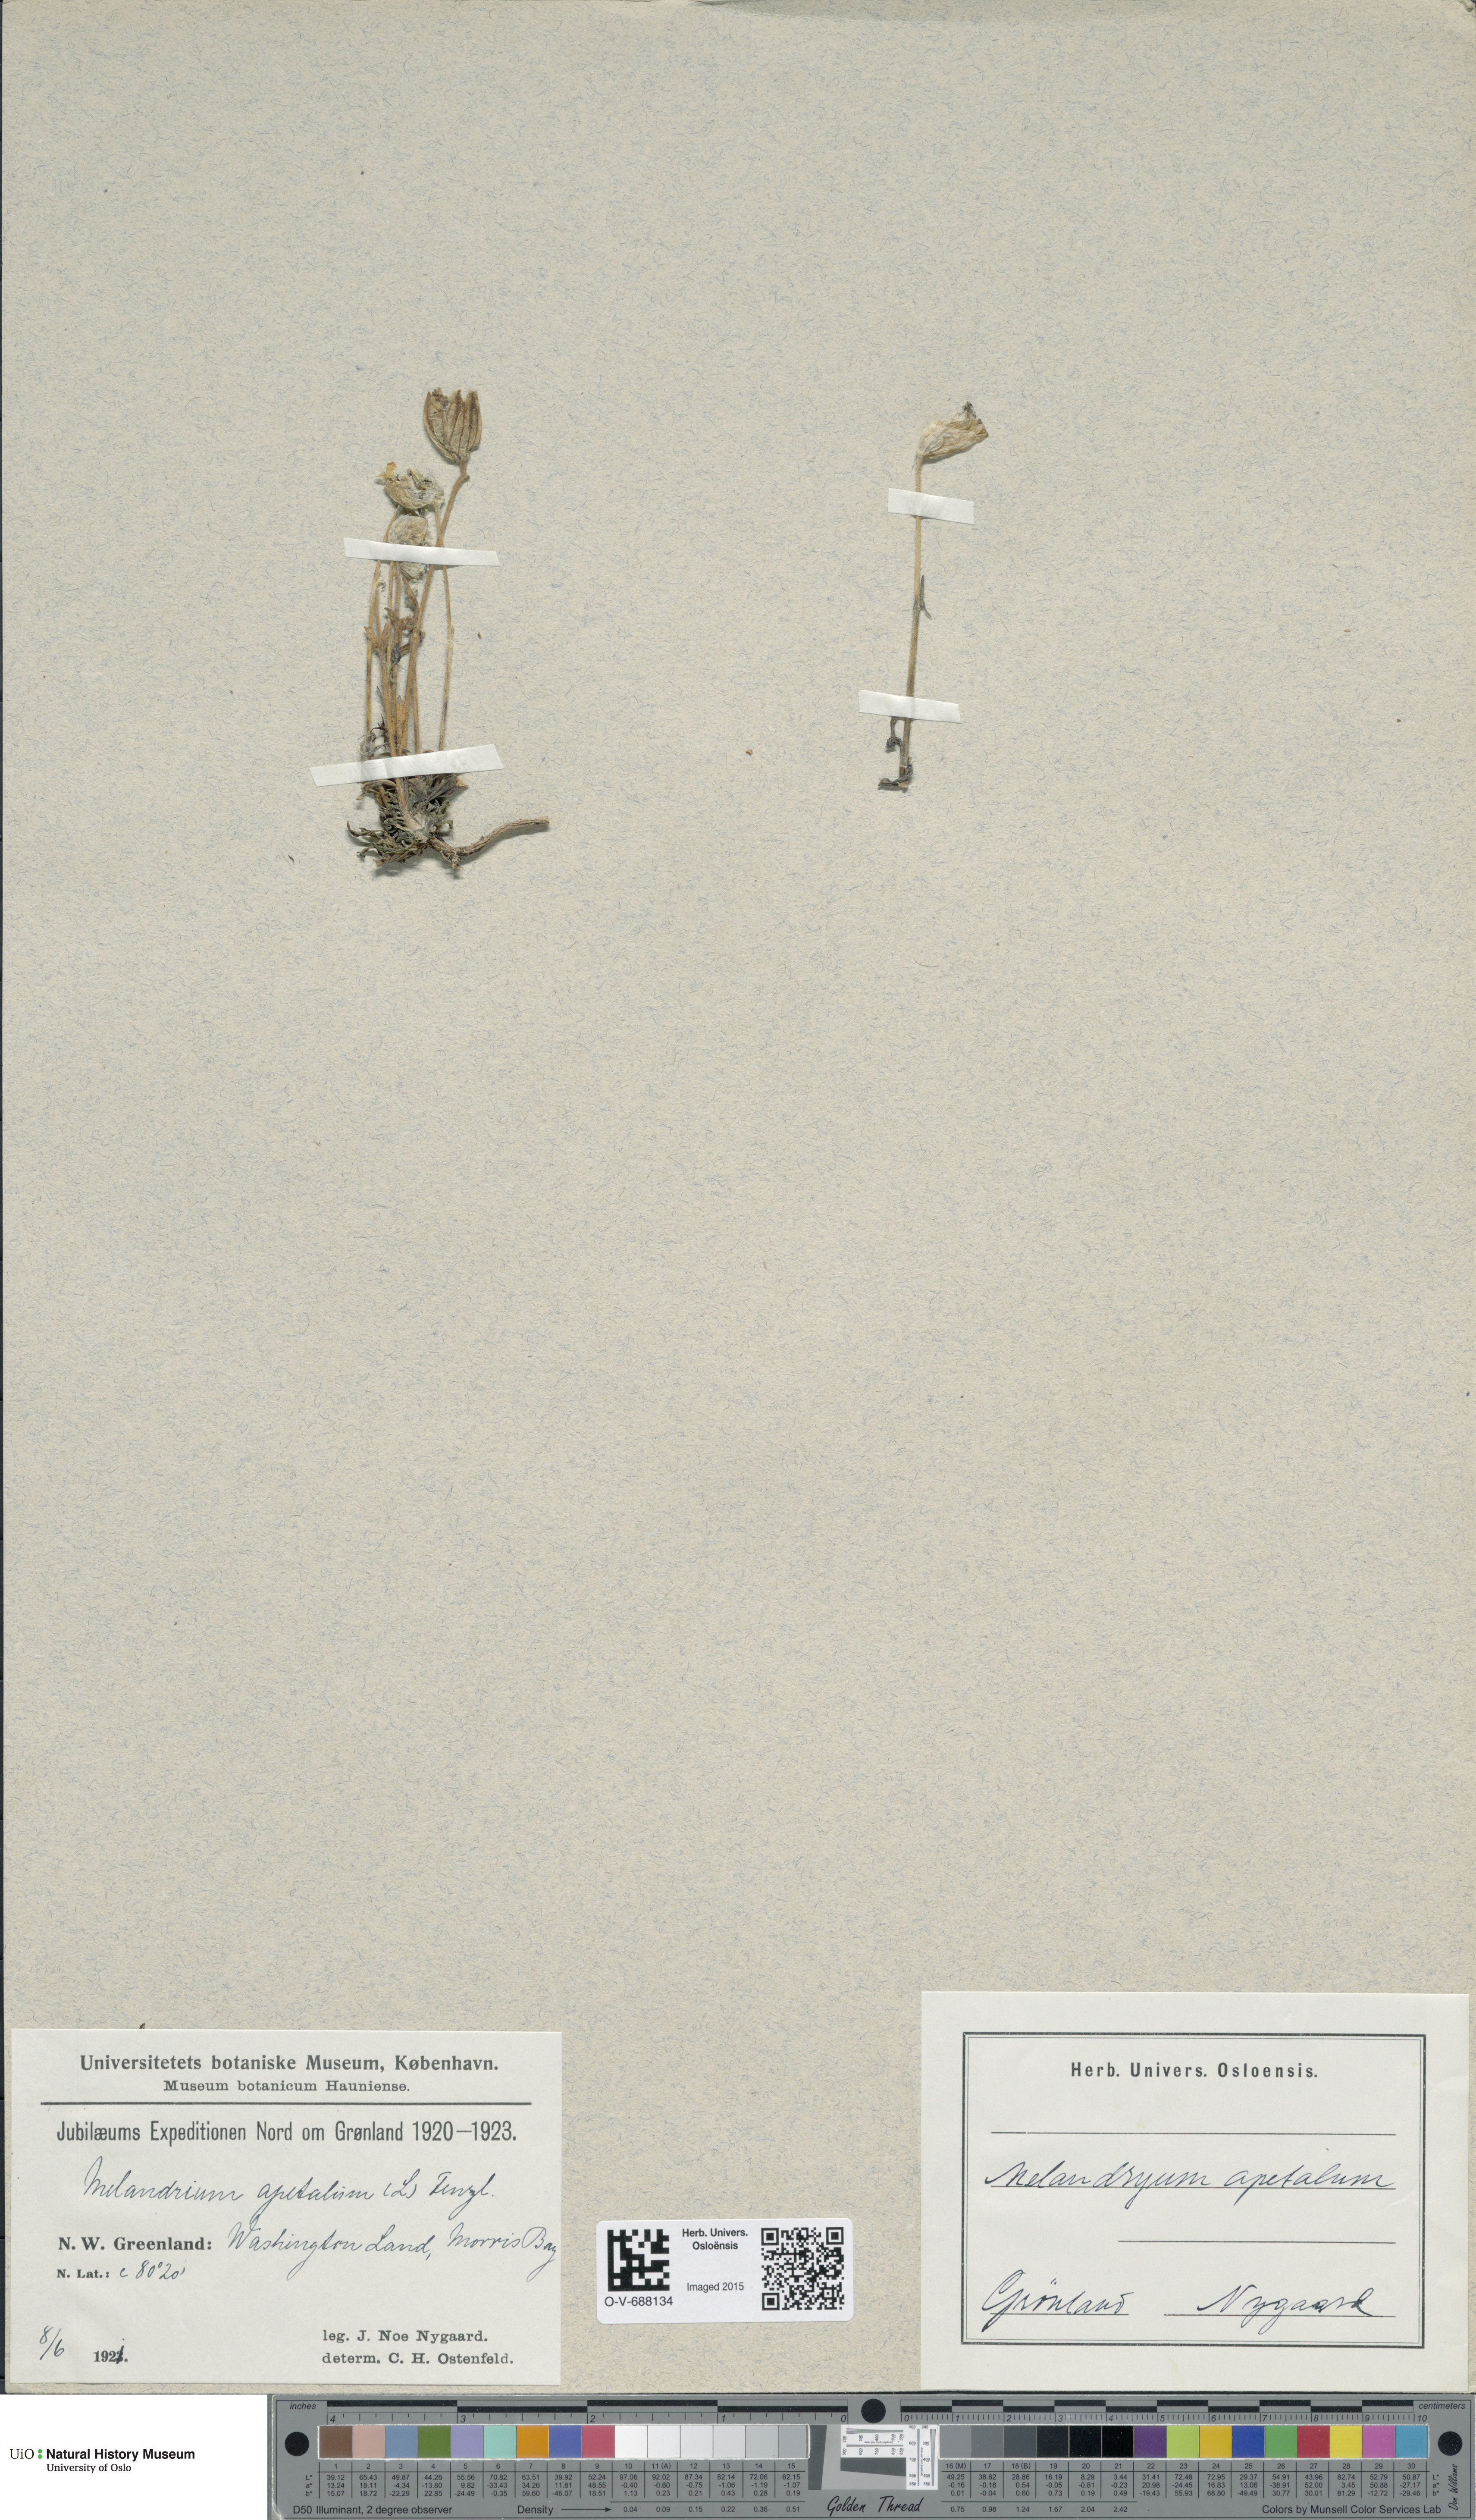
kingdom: Plantae
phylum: Tracheophyta
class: Magnoliopsida
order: Caryophyllales
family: Caryophyllaceae
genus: Silene
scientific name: Silene wahlbergella
